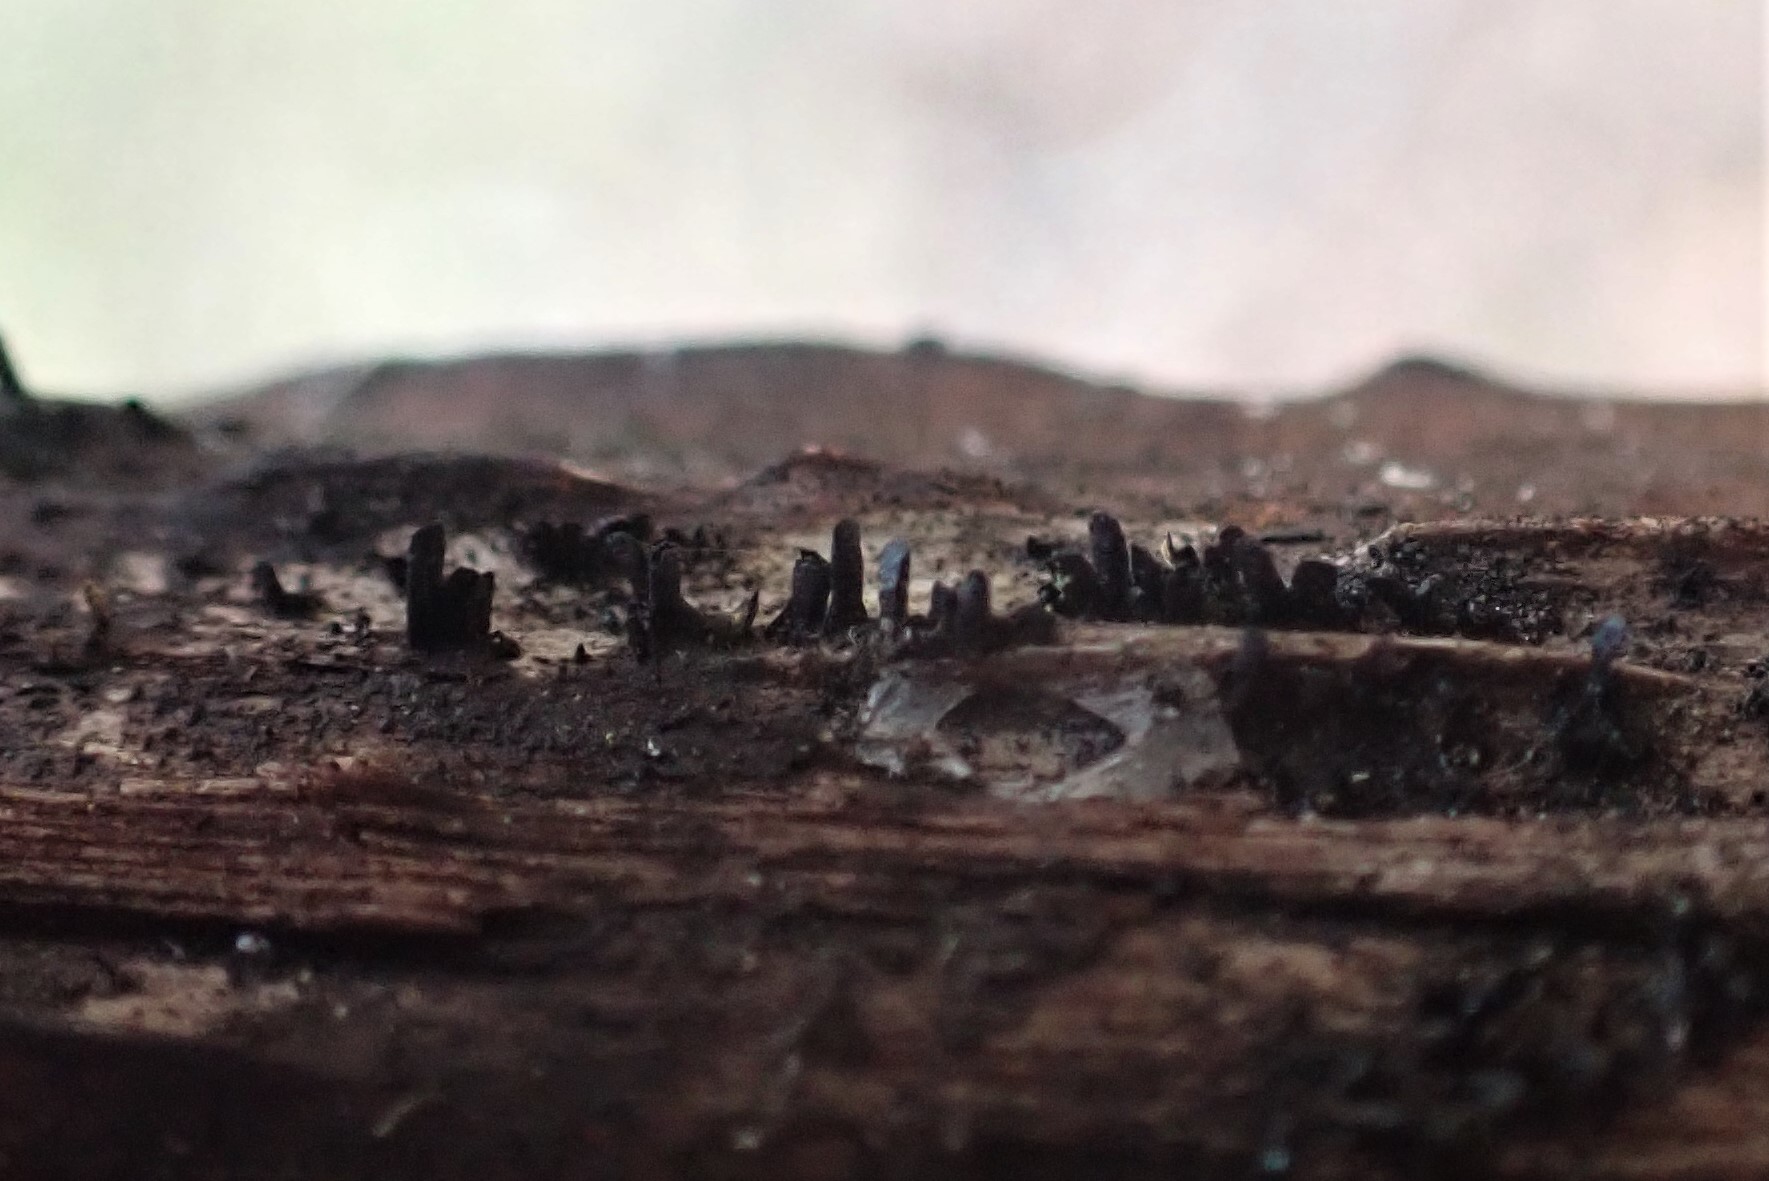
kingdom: Fungi
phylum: Ascomycota
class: Eurotiomycetes
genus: Glyphium
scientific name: Glyphium elatum
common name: kuløkse
